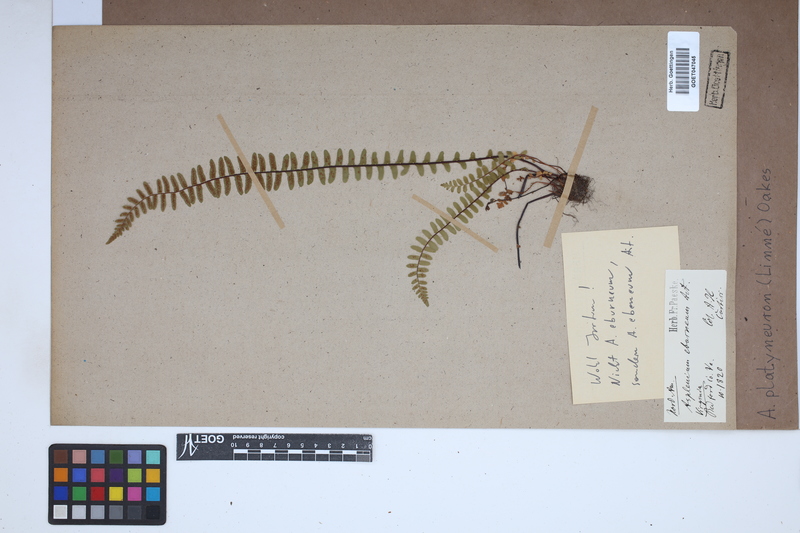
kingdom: Plantae
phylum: Tracheophyta
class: Polypodiopsida
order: Polypodiales
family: Aspleniaceae
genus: Asplenium
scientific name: Asplenium platyneuron
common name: Ebony spleenwort
